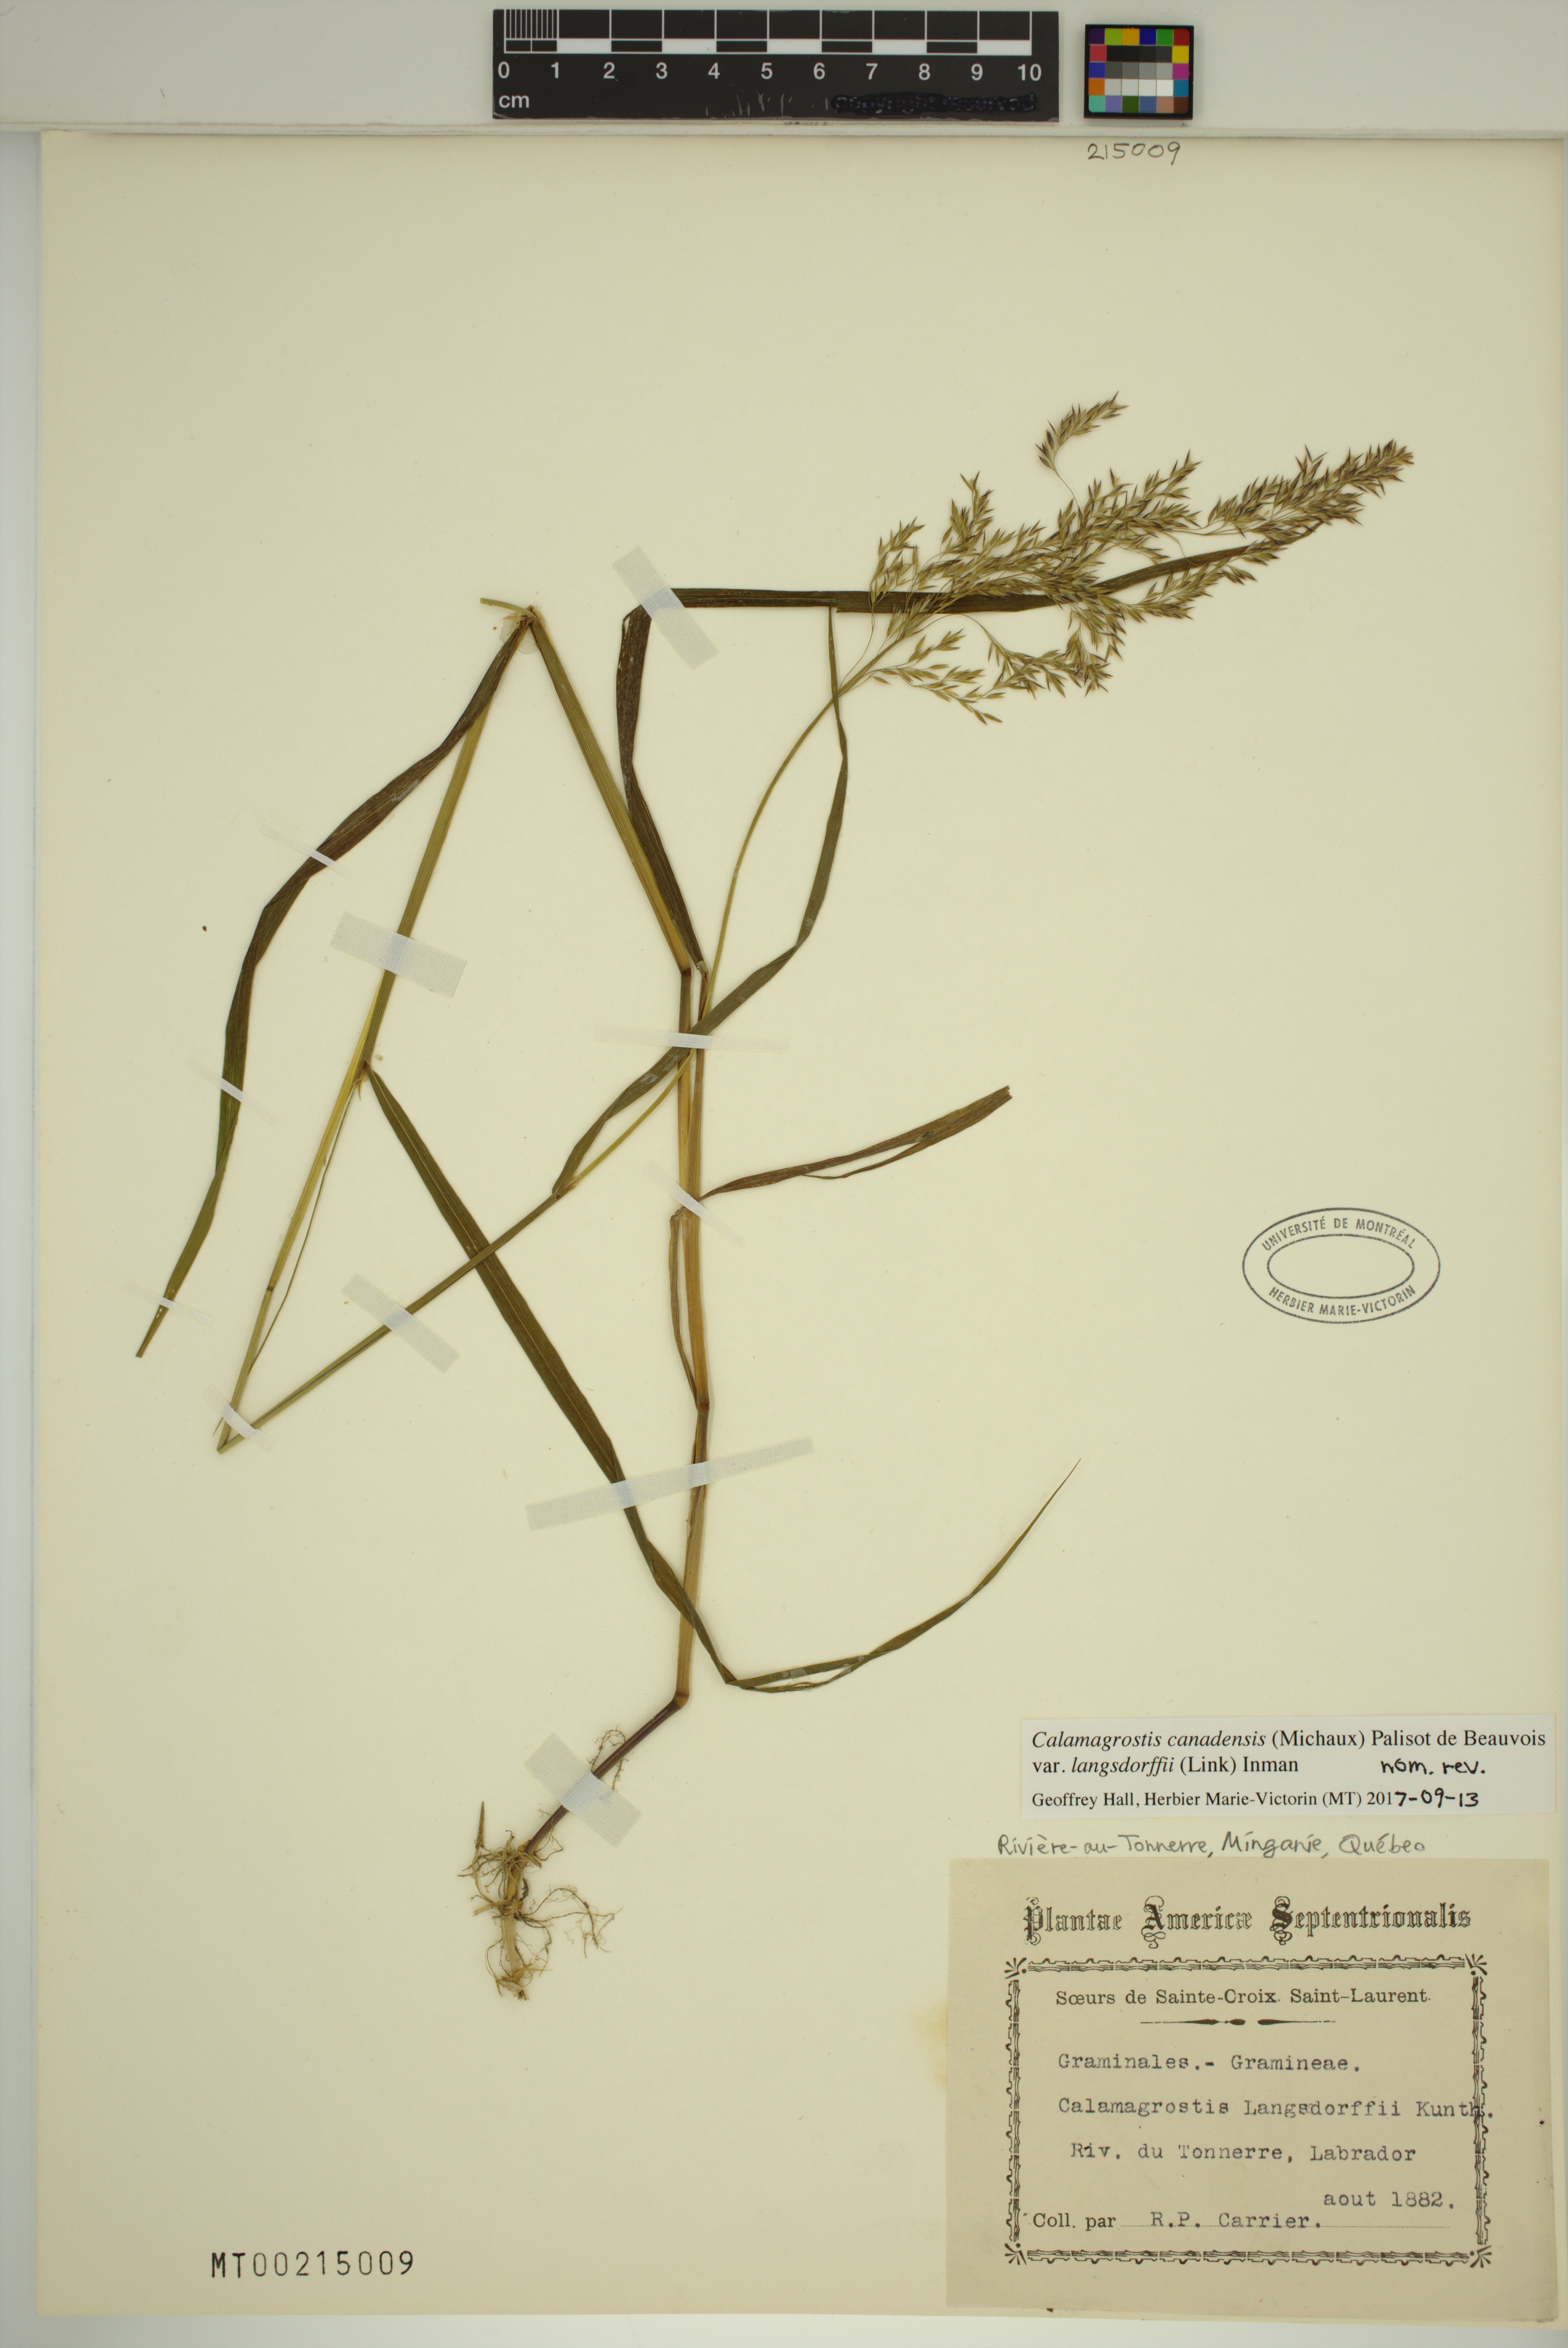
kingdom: Plantae
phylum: Tracheophyta
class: Liliopsida
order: Poales
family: Poaceae
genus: Calamagrostis
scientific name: Calamagrostis purpurea
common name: Scandinavian small-reed
